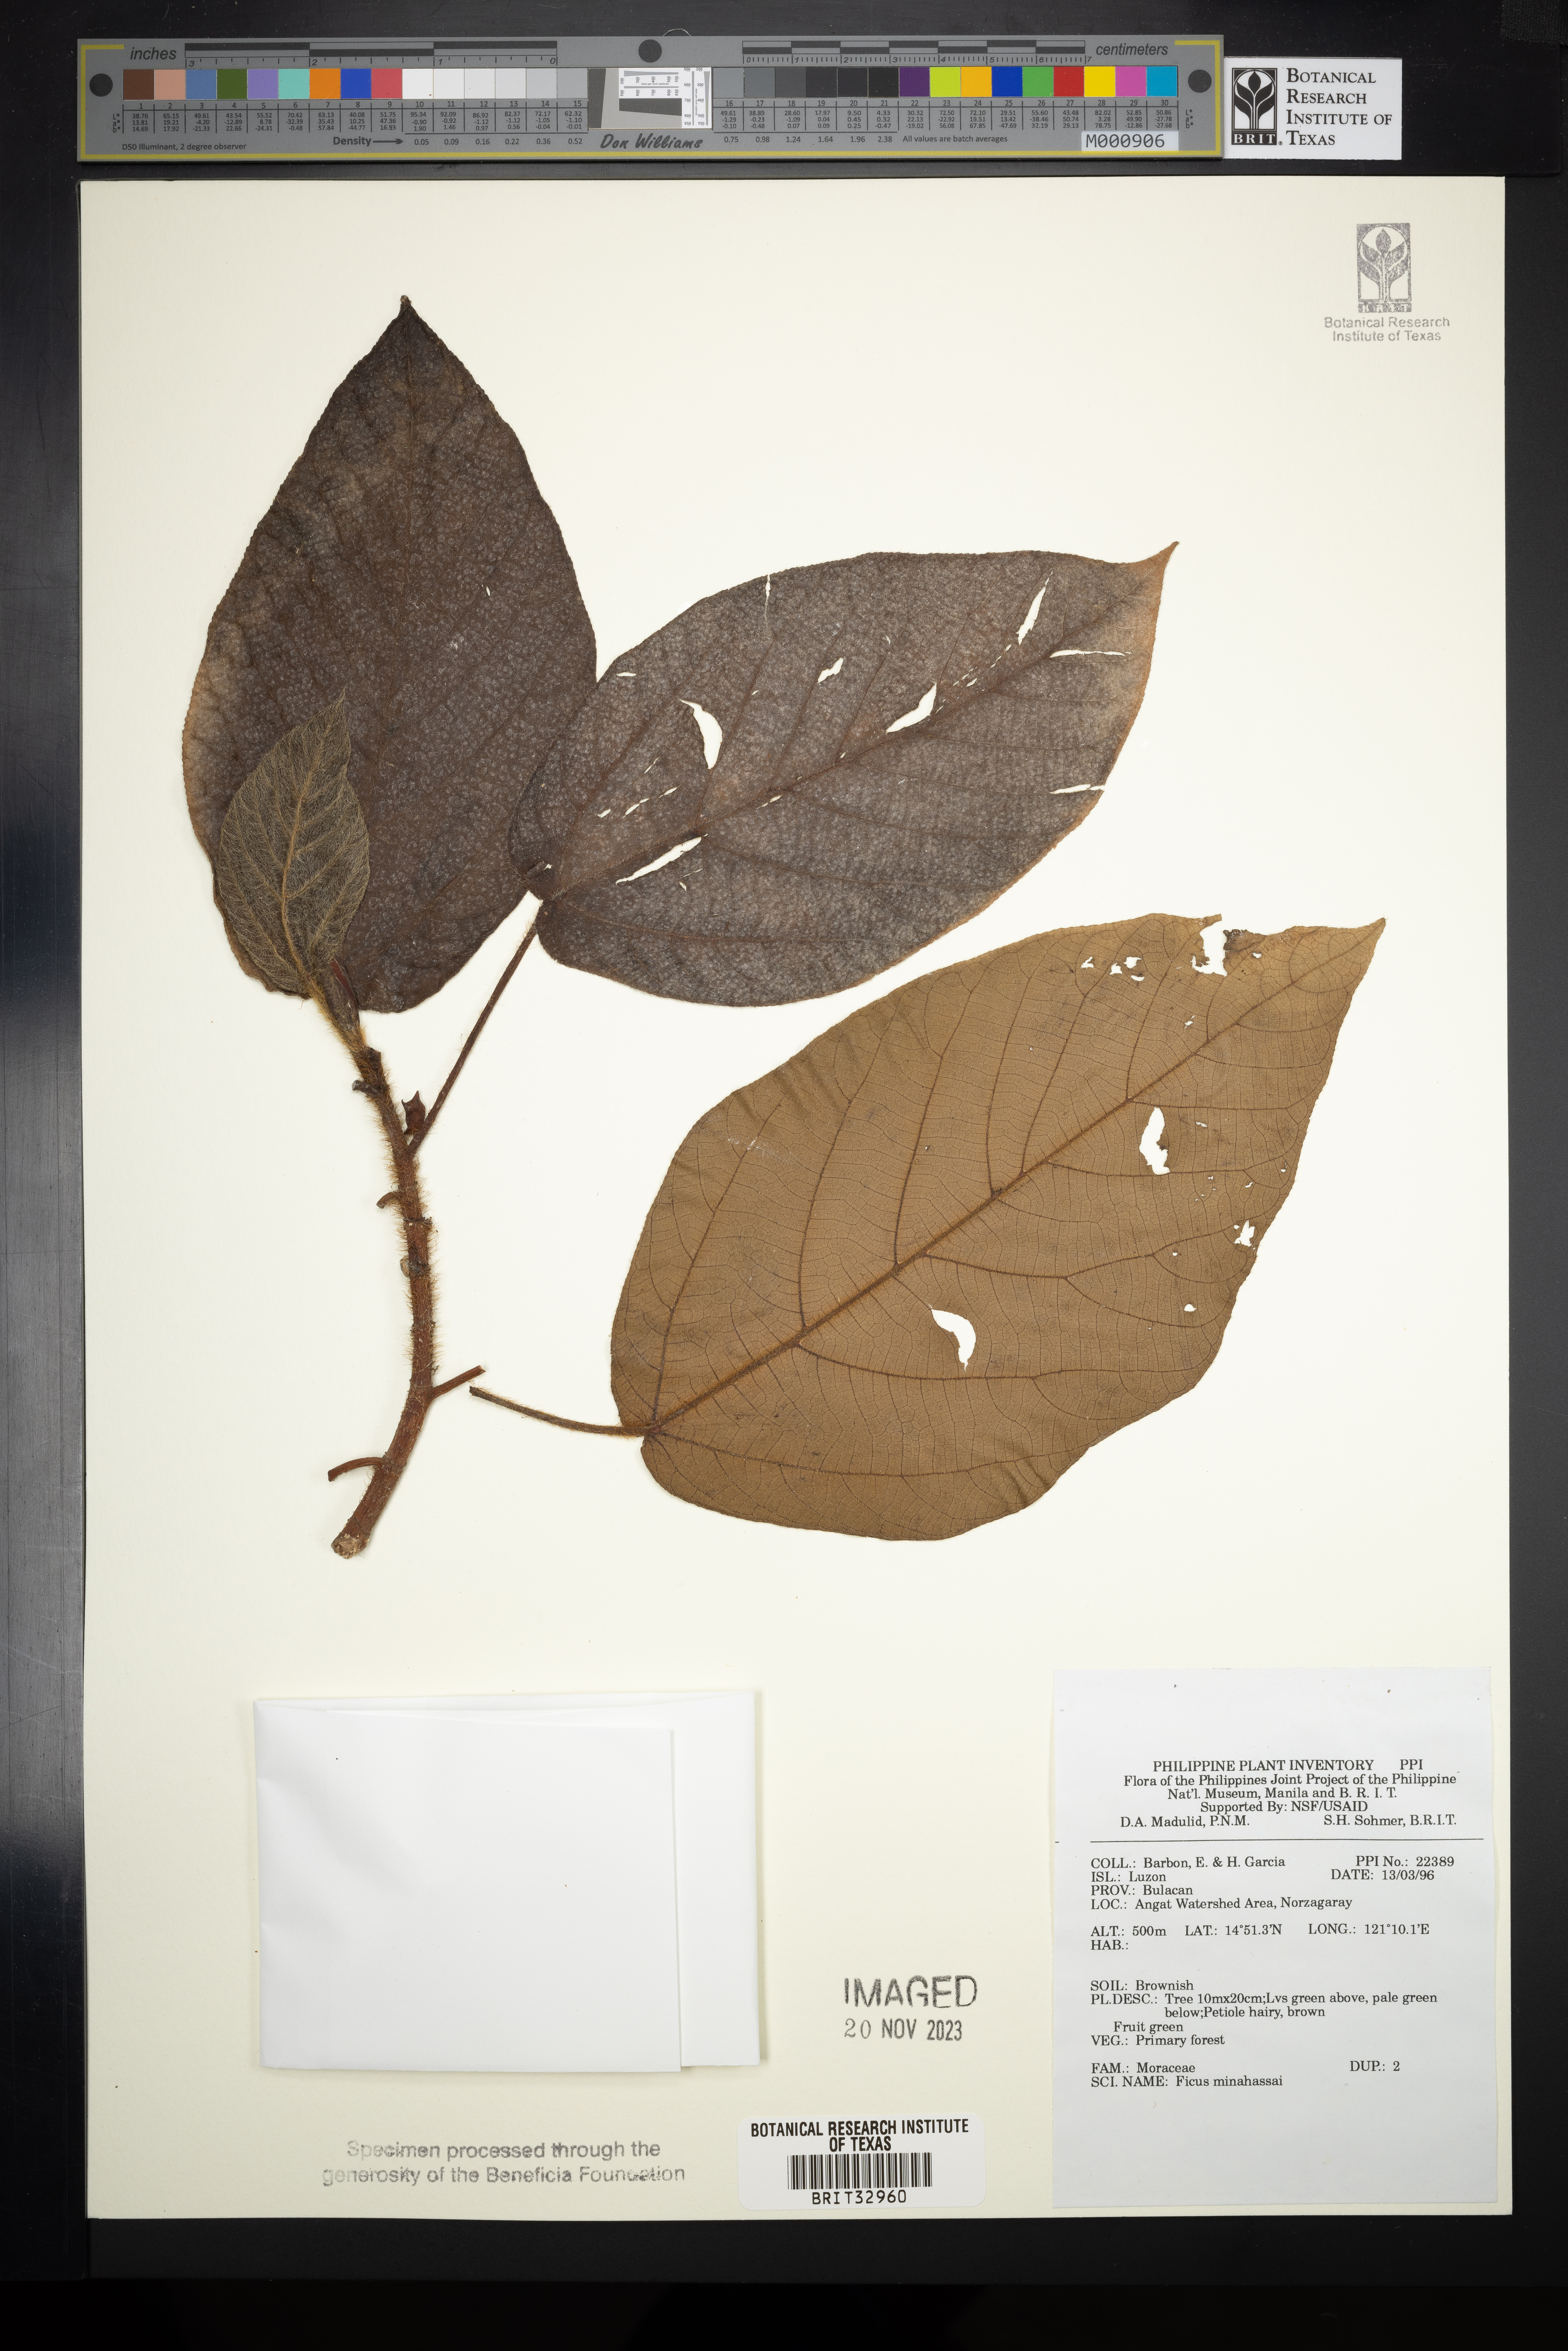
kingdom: Plantae
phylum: Tracheophyta
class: Magnoliopsida
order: Rosales
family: Moraceae
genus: Ficus
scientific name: Ficus minahassae
